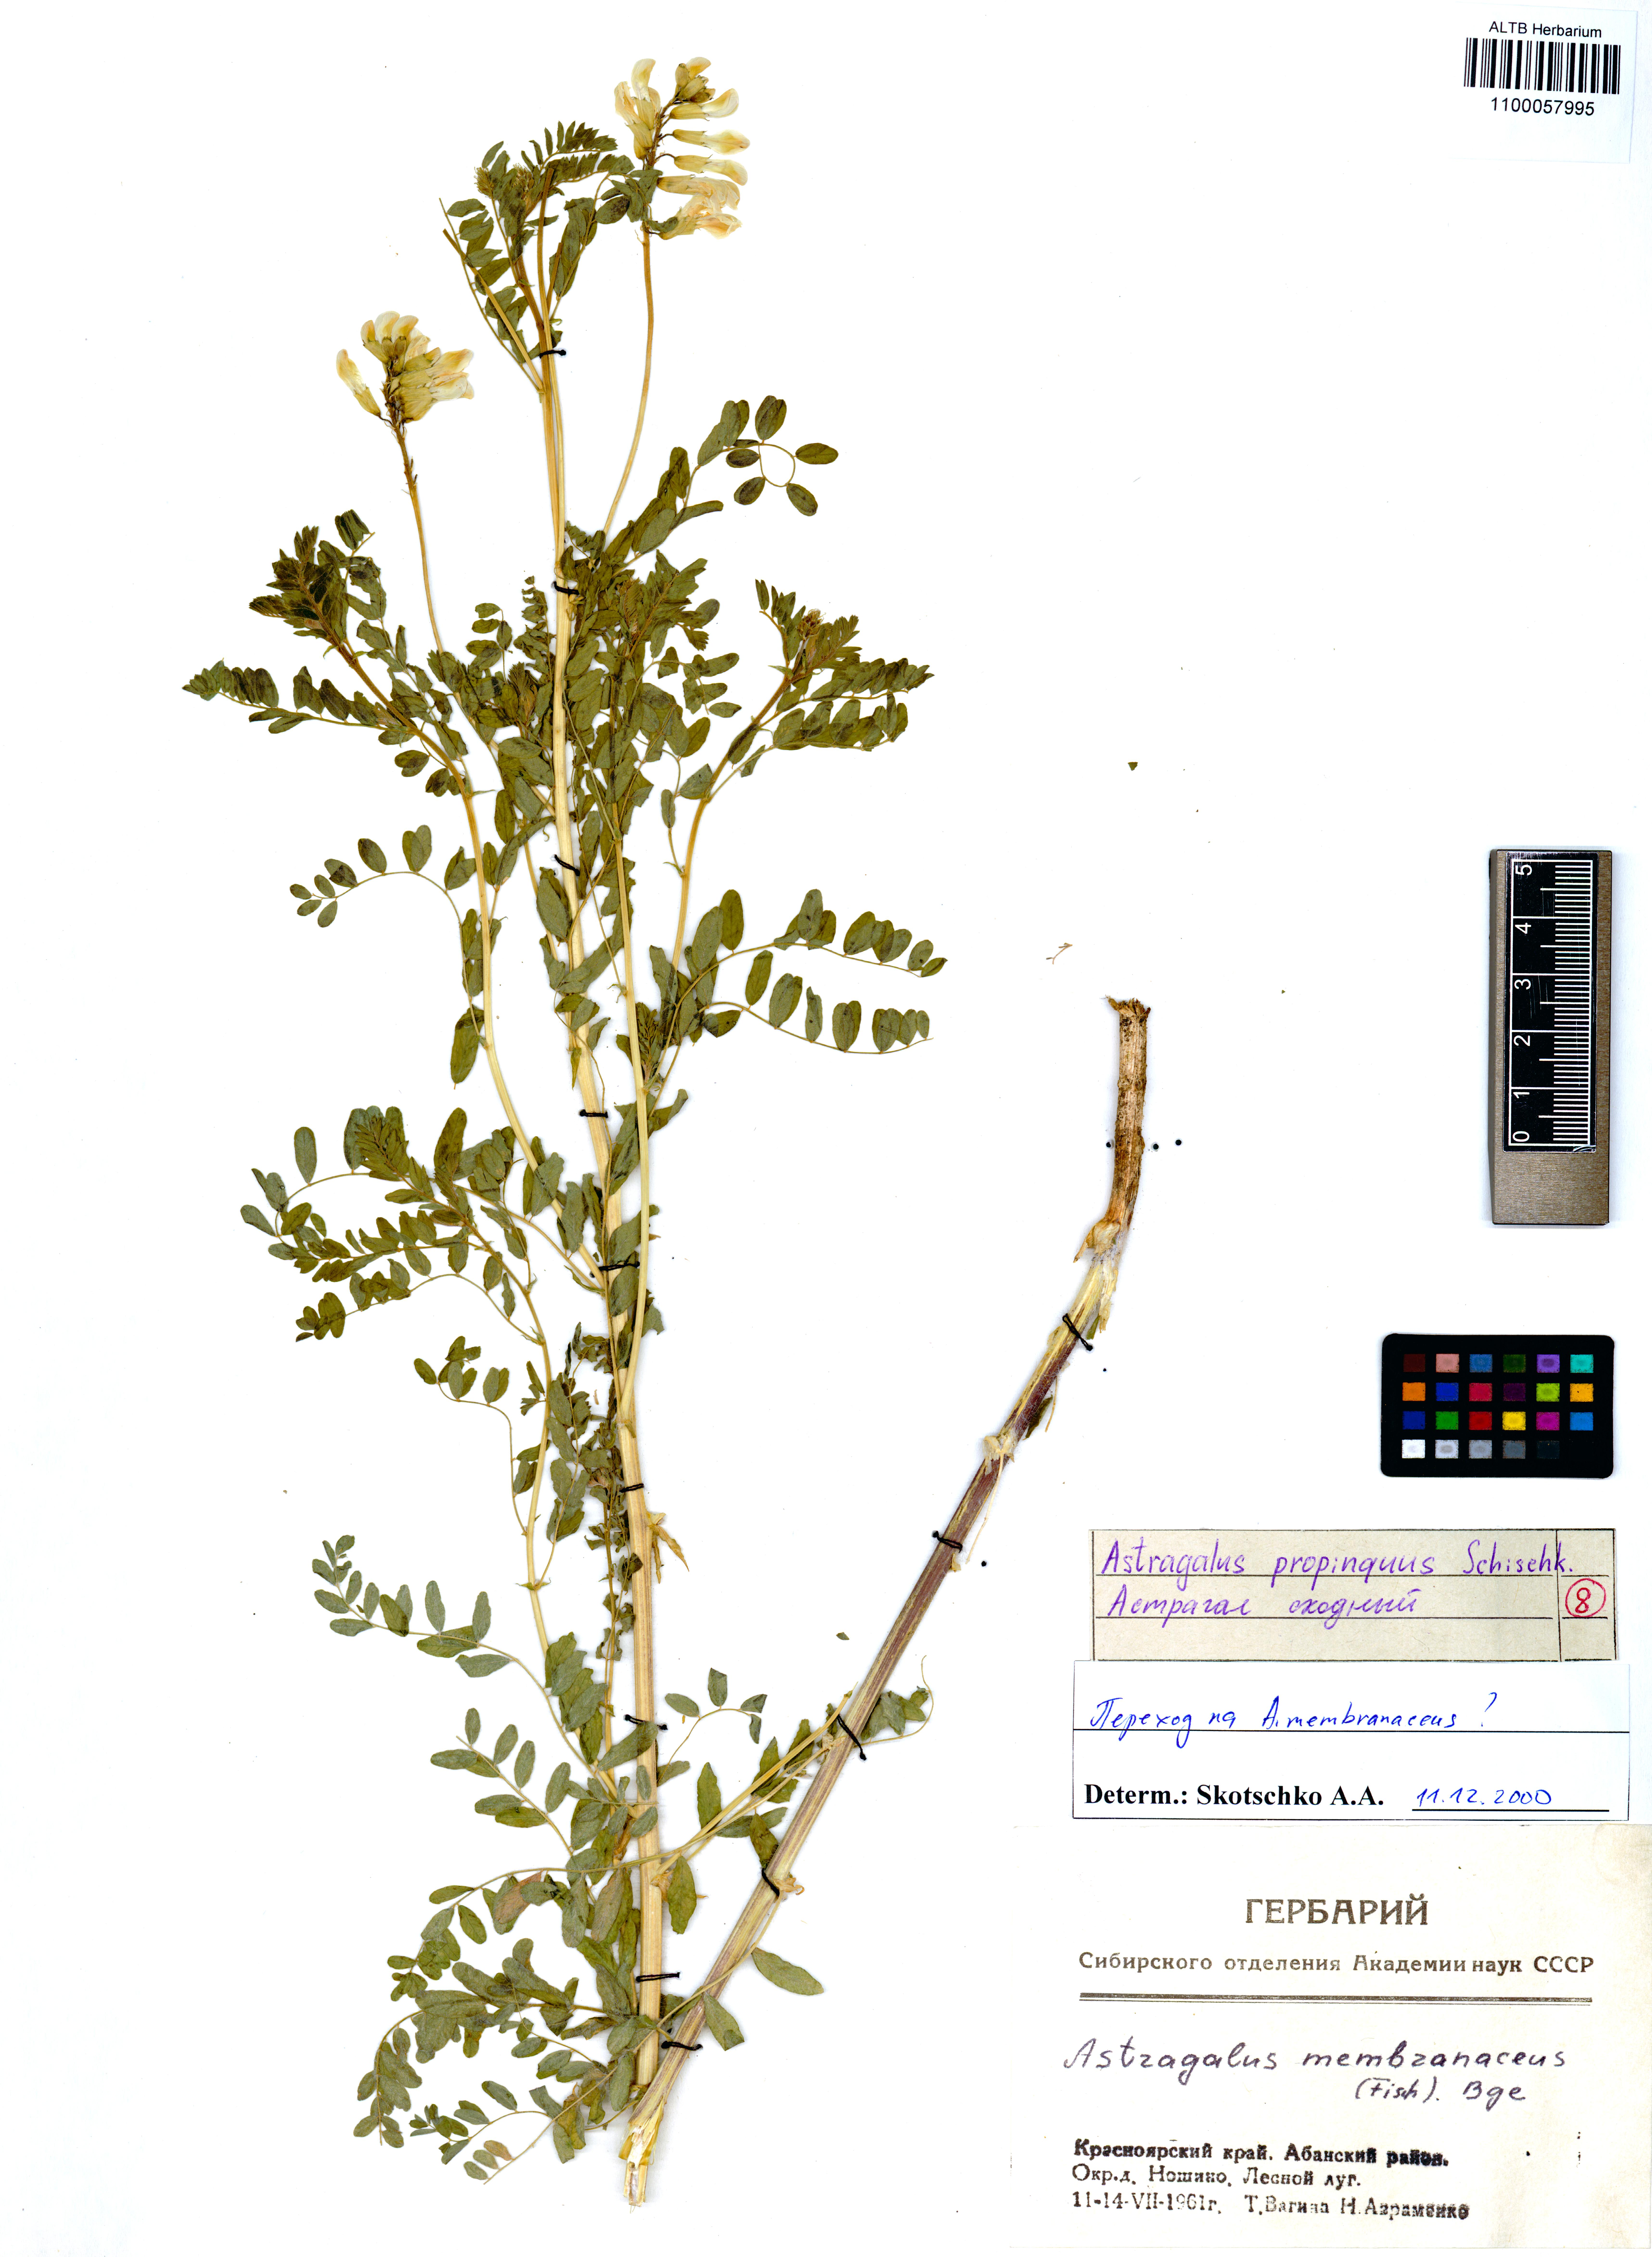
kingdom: Plantae
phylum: Tracheophyta
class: Magnoliopsida
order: Fabales
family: Fabaceae
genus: Astragalus
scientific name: Astragalus mongholicus
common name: Membranous milk-vetch
